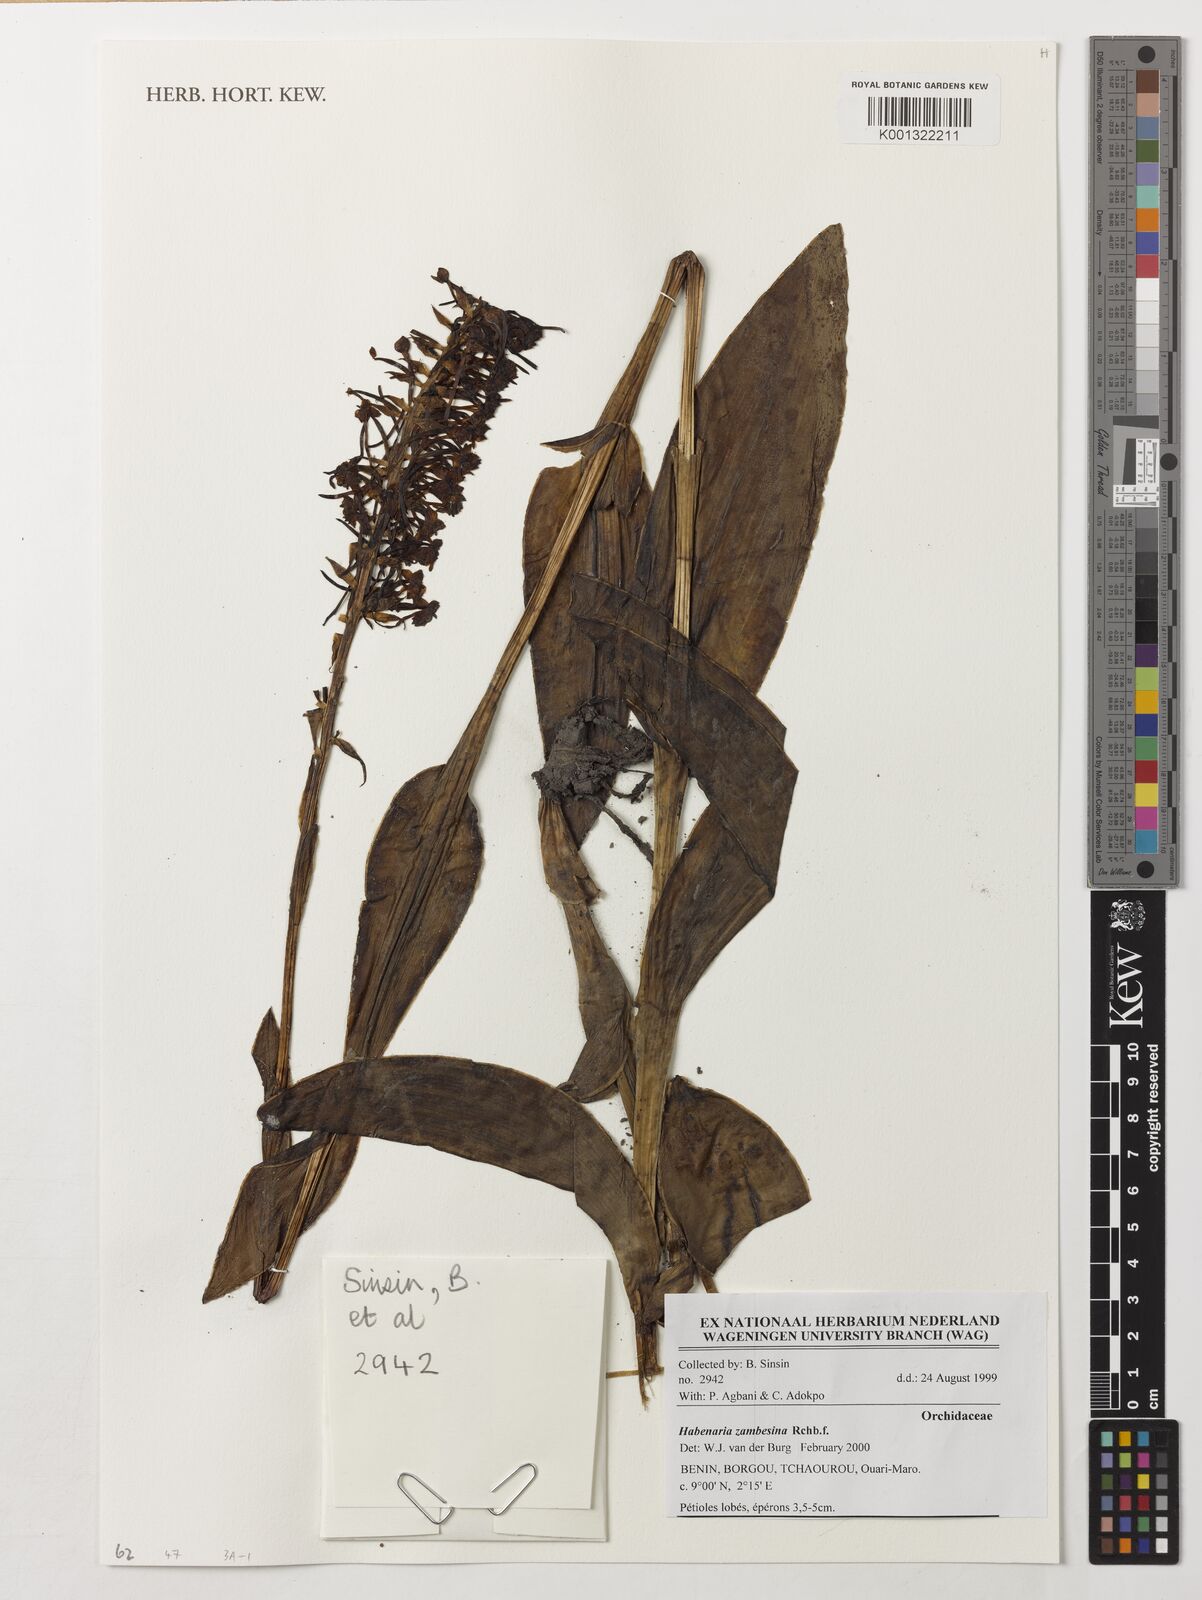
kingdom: Plantae
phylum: Tracheophyta
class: Liliopsida
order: Asparagales
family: Orchidaceae
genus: Habenaria
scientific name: Habenaria zambesina
